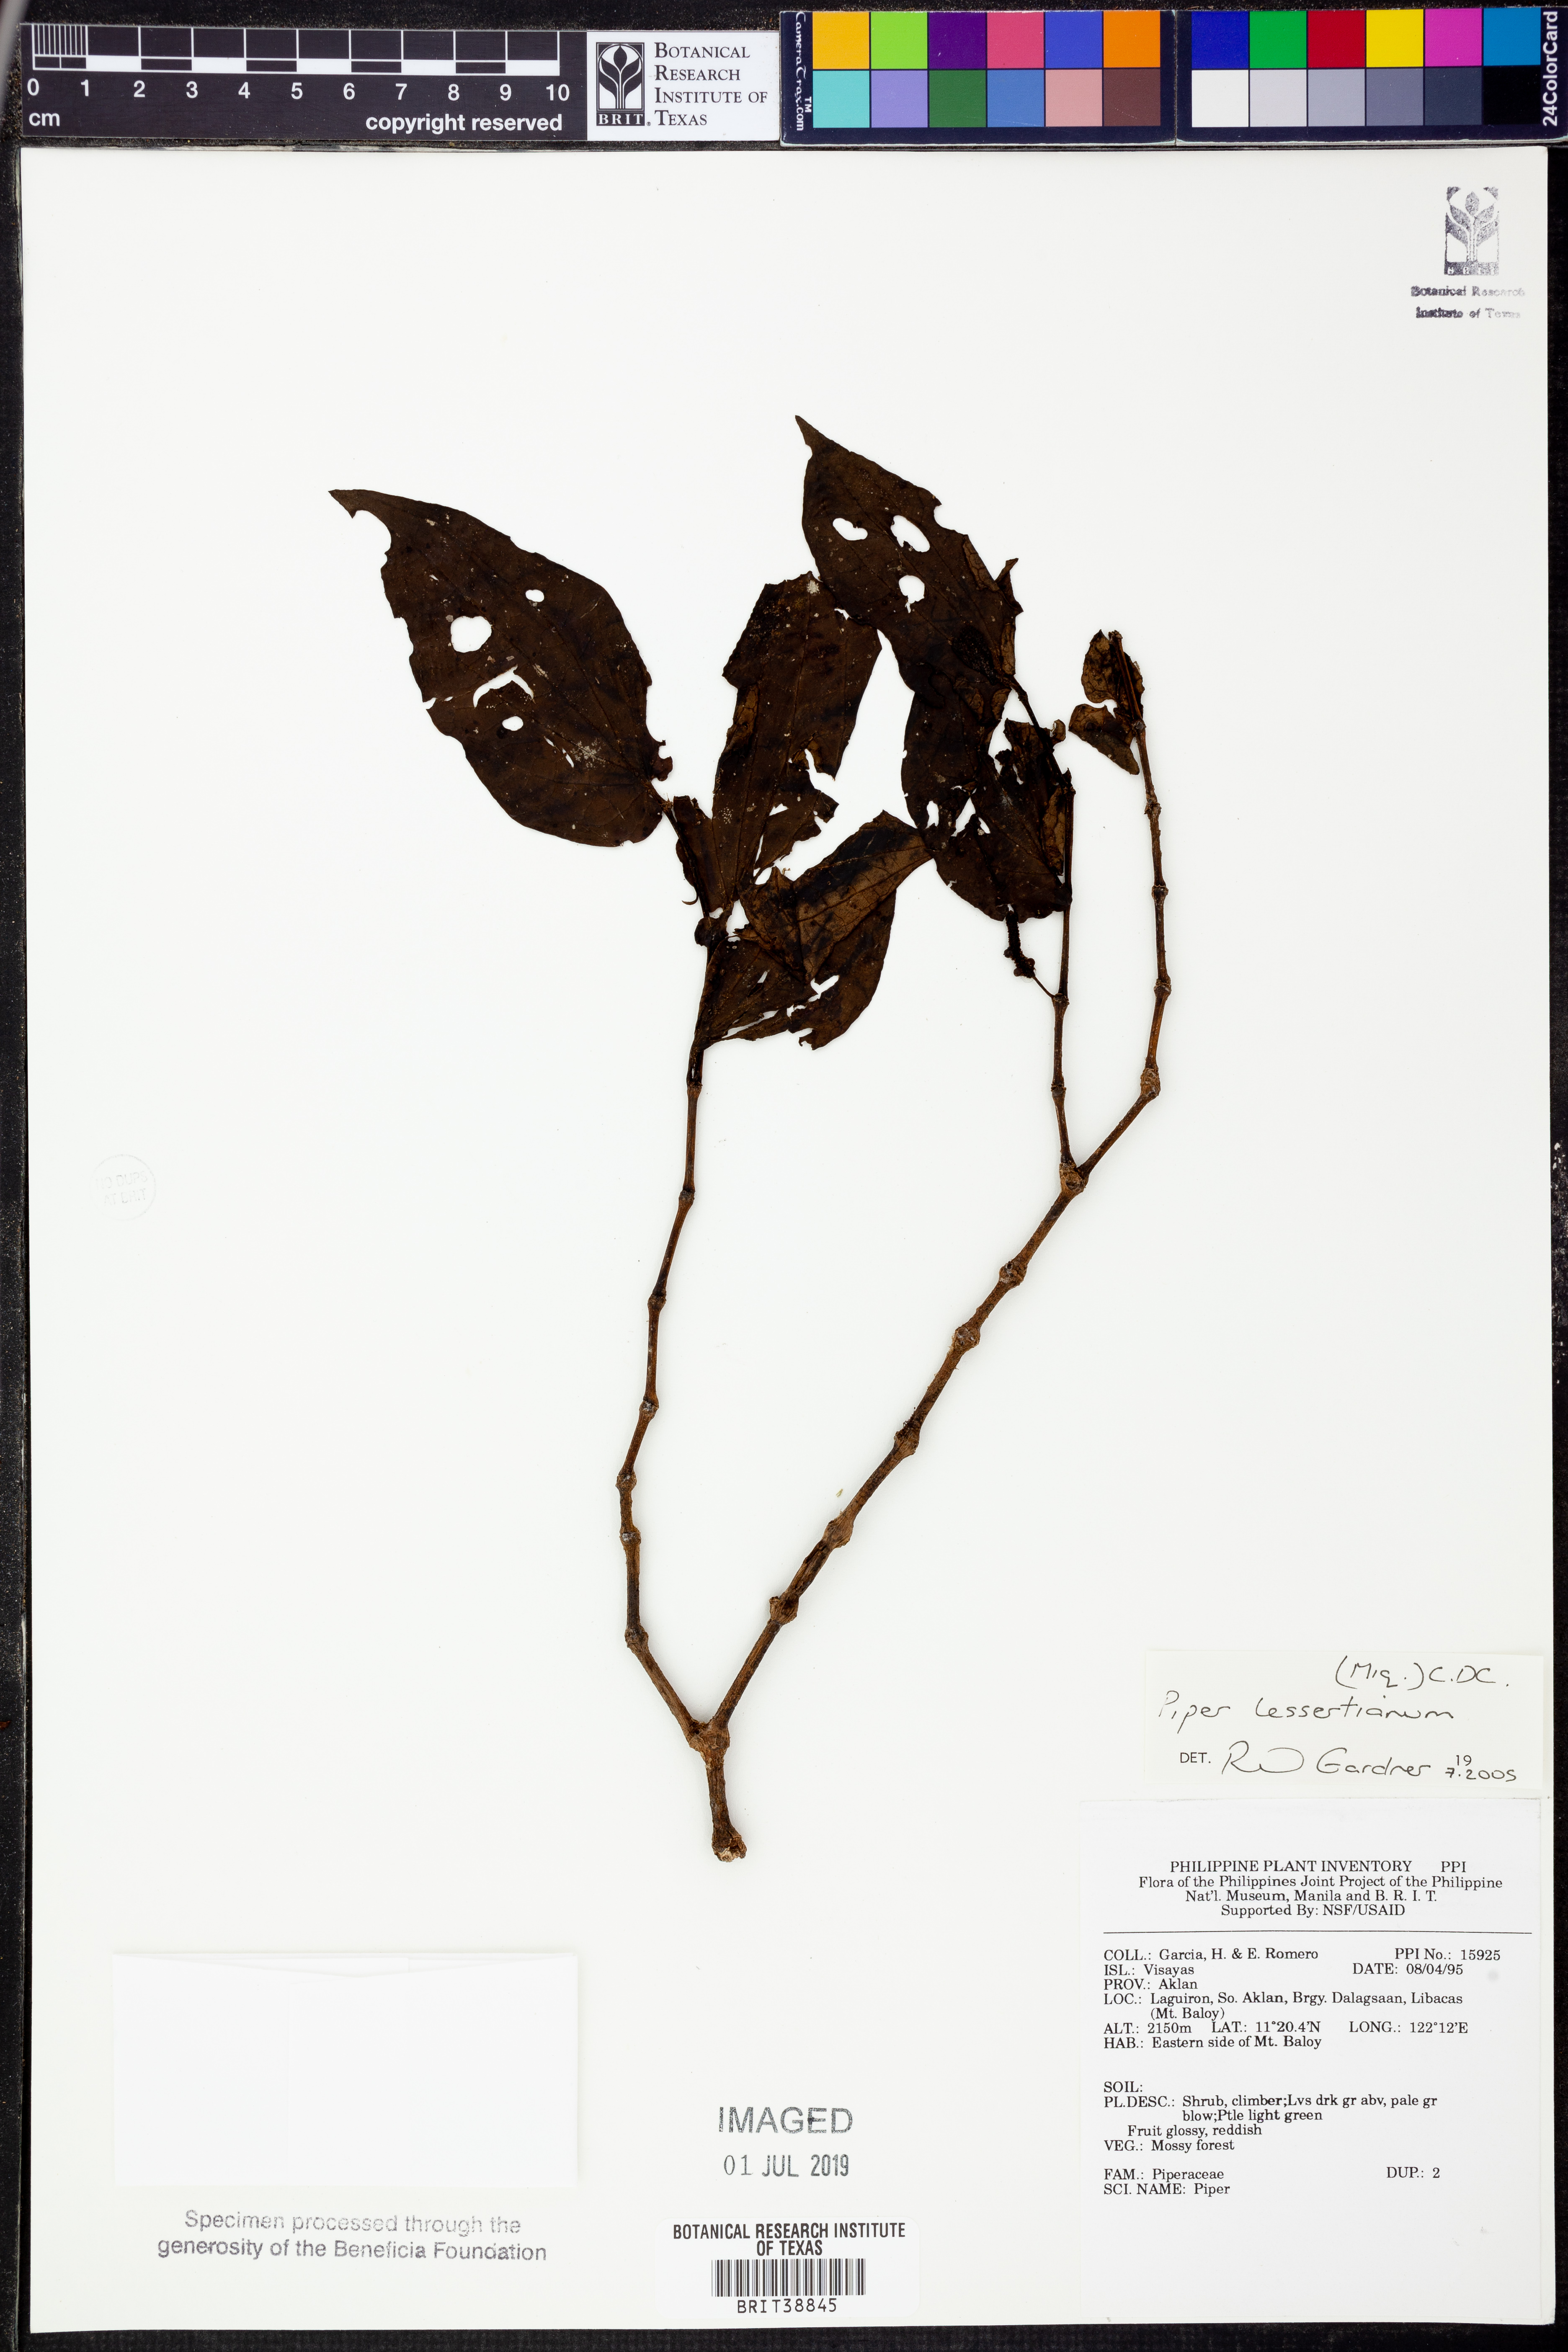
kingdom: Plantae
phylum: Tracheophyta
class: Magnoliopsida
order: Piperales
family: Piperaceae
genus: Piper
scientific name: Piper lessertianum
